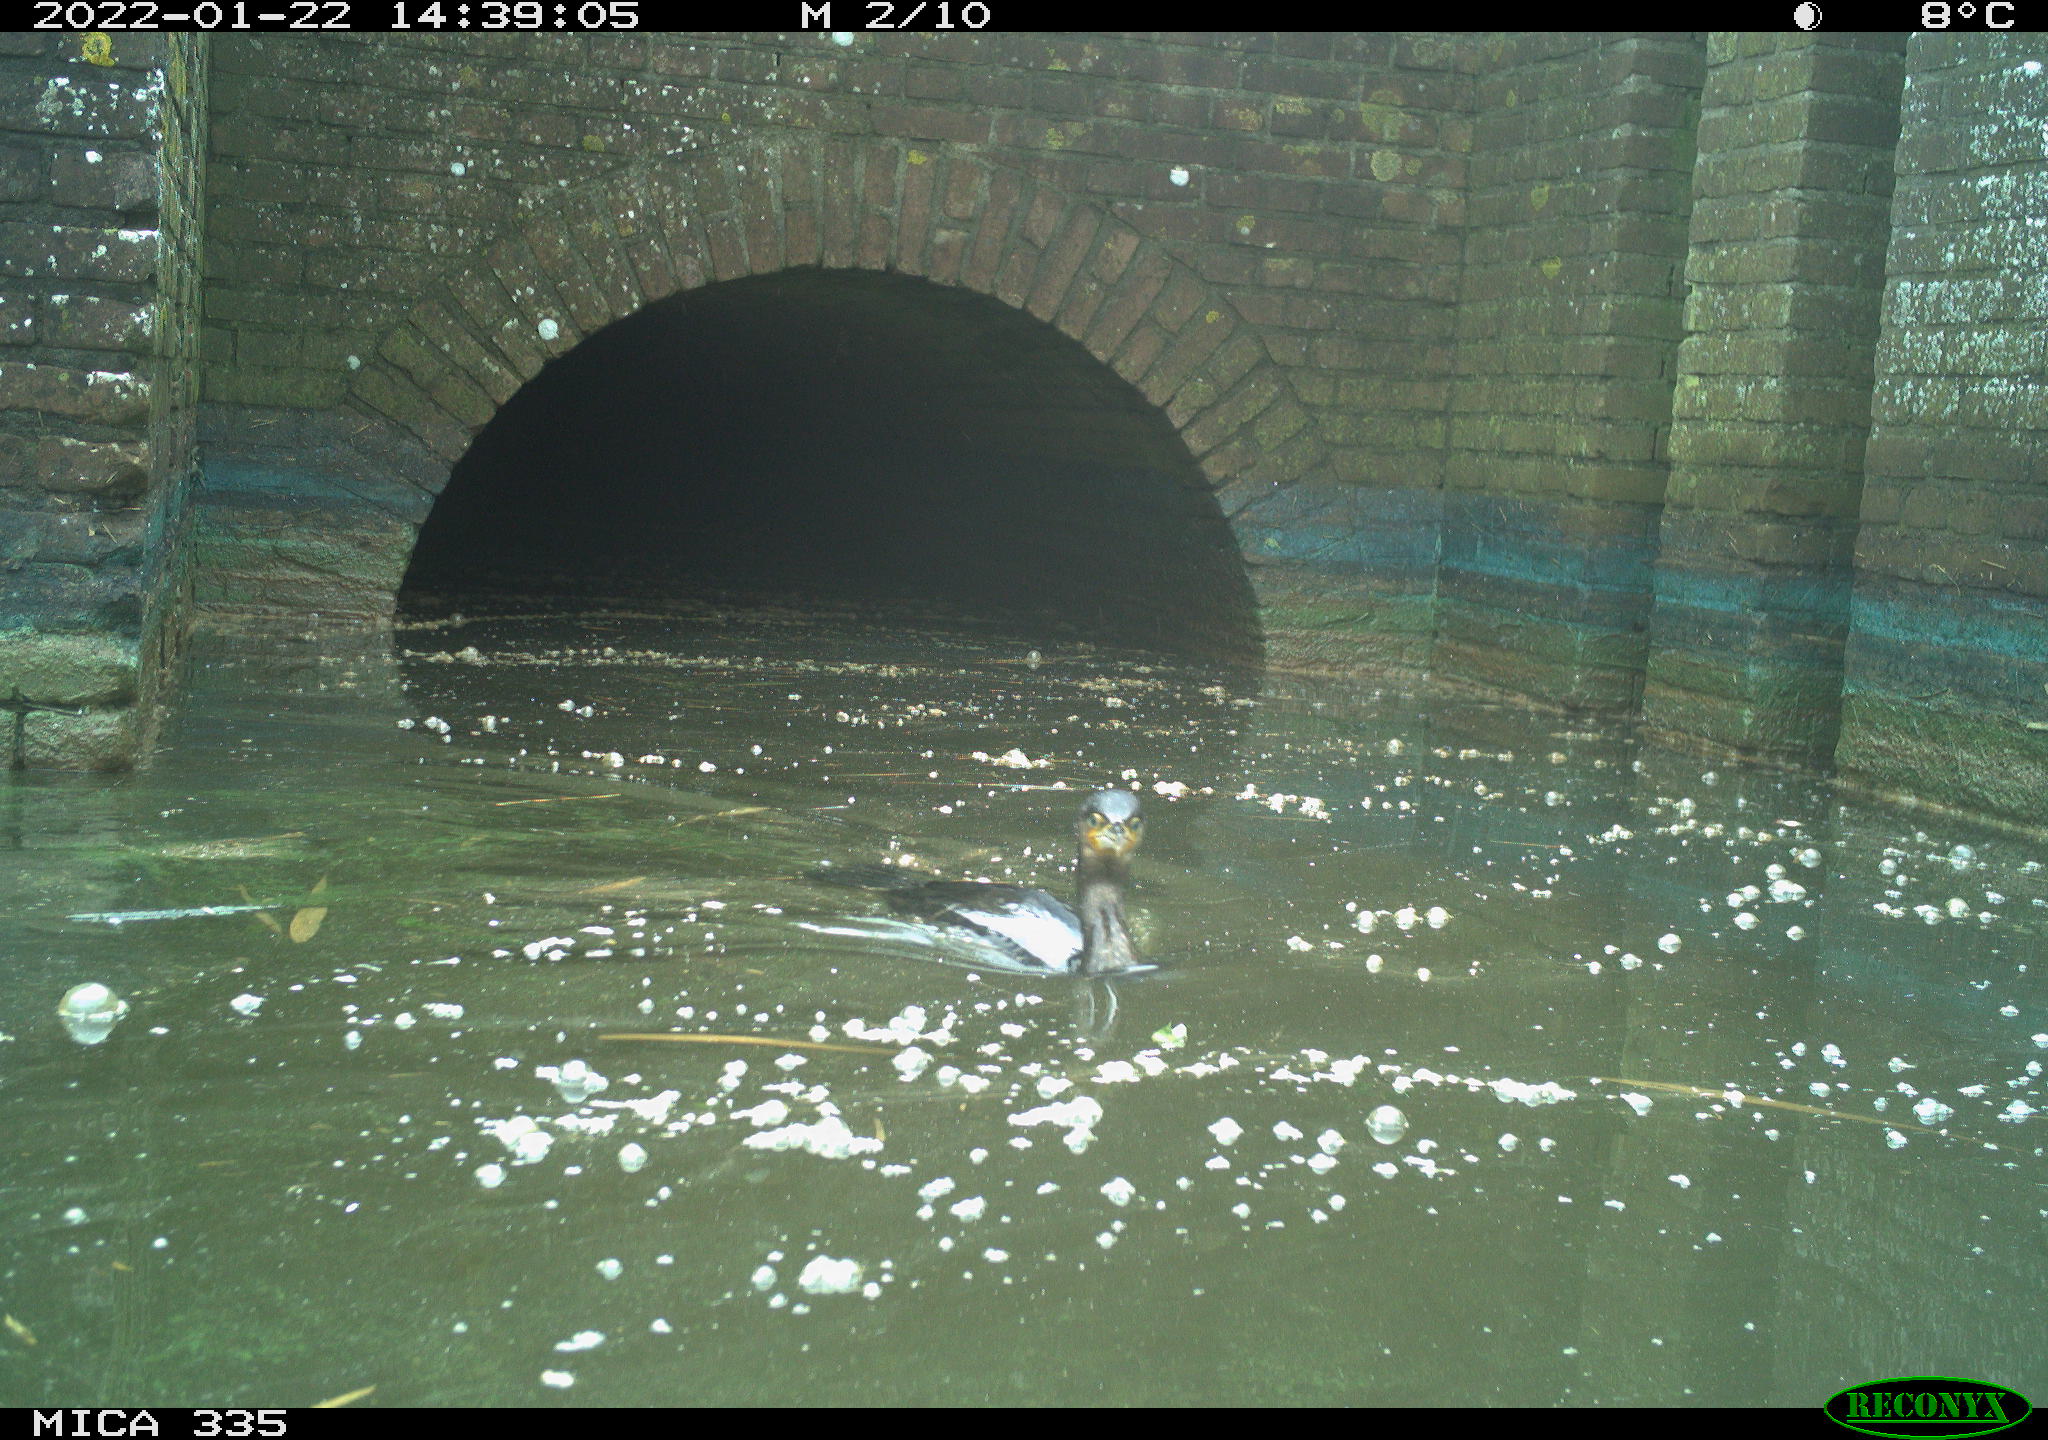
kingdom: Animalia
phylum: Chordata
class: Aves
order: Suliformes
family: Phalacrocoracidae
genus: Phalacrocorax
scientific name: Phalacrocorax carbo
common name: Great cormorant
